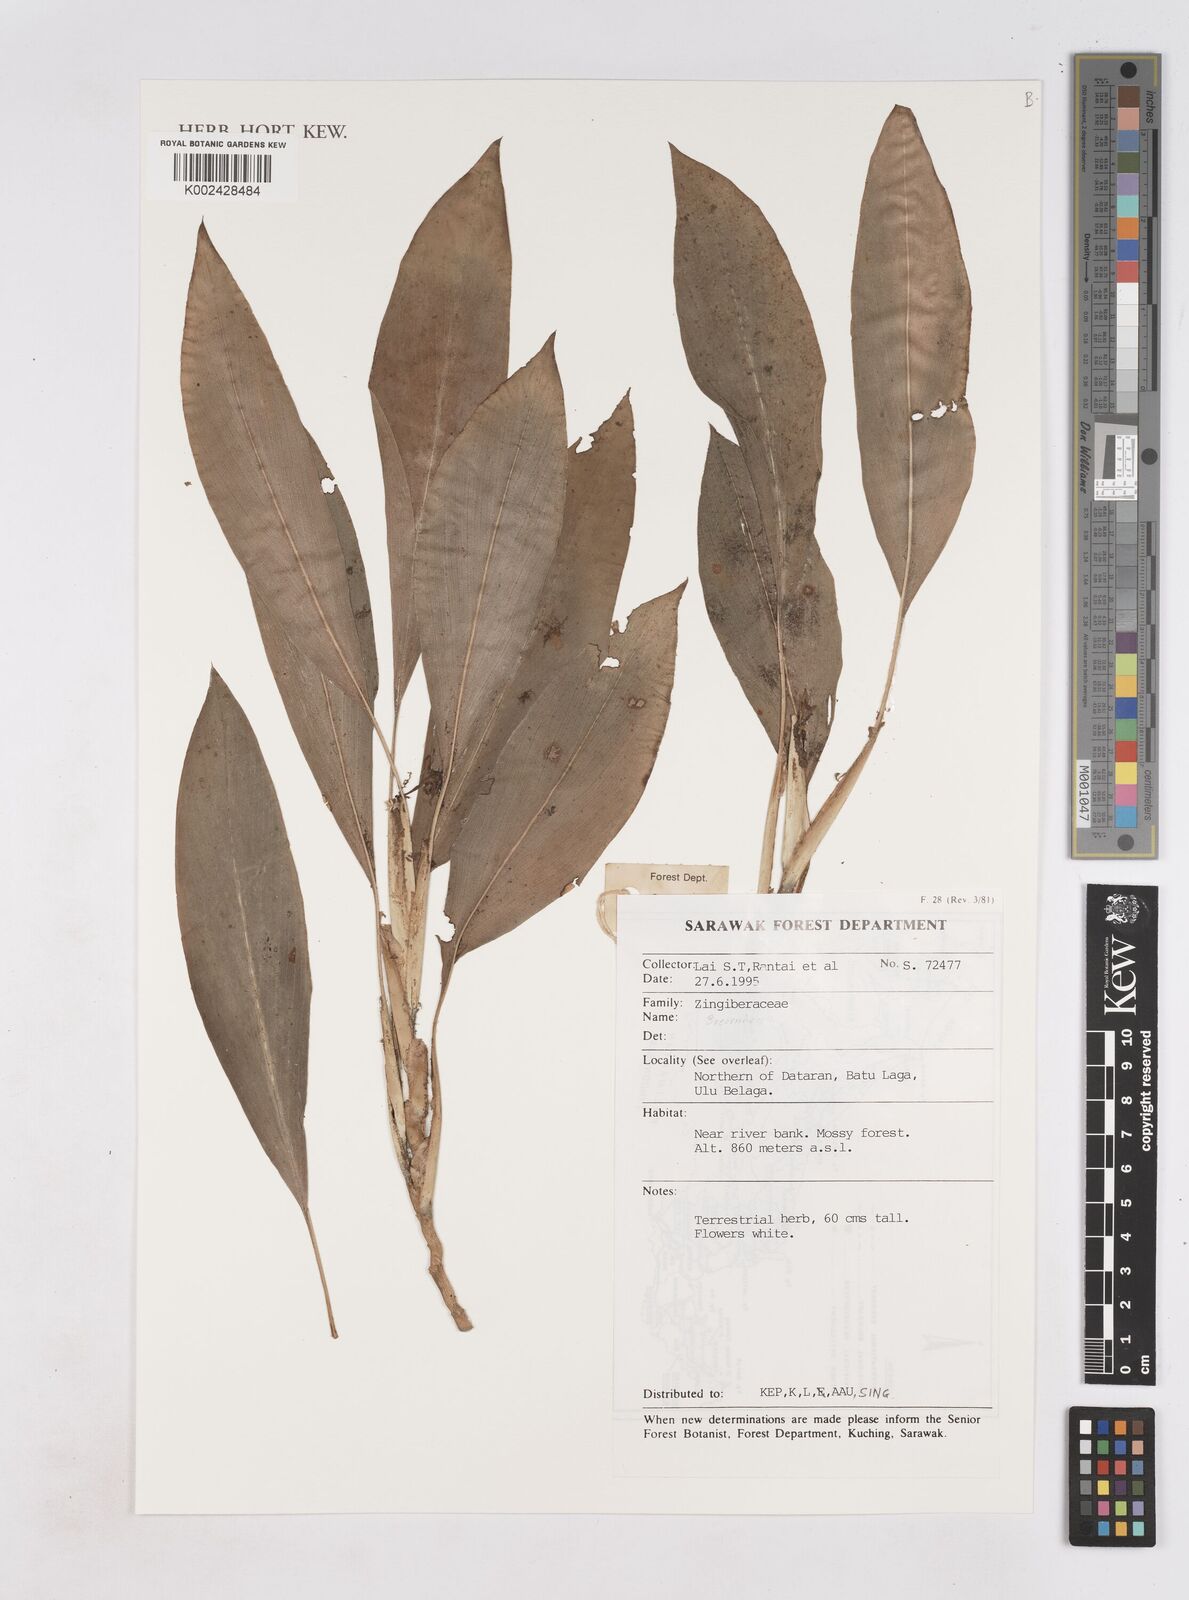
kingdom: Plantae
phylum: Tracheophyta
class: Liliopsida
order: Zingiberales
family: Zingiberaceae
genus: Boesenbergia
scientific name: Boesenbergia
